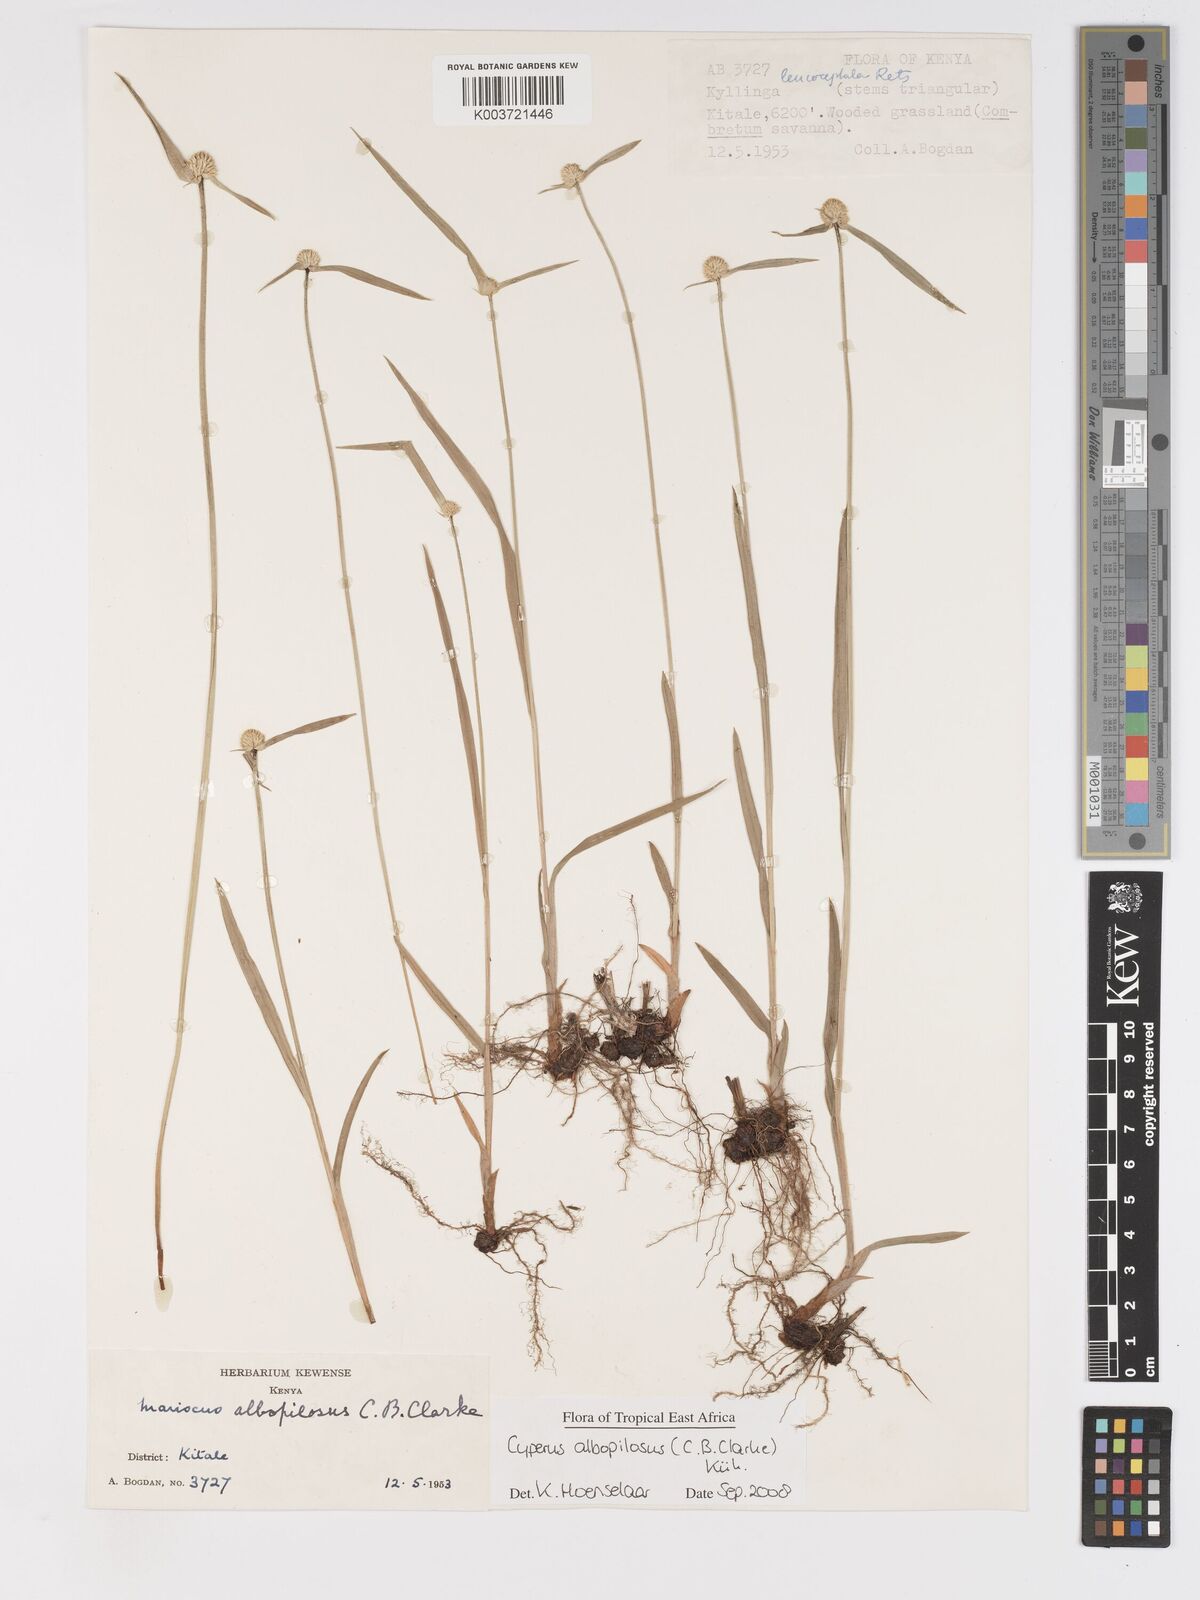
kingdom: Plantae
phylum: Tracheophyta
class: Liliopsida
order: Poales
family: Cyperaceae
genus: Cyperus
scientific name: Cyperus albopilosus
